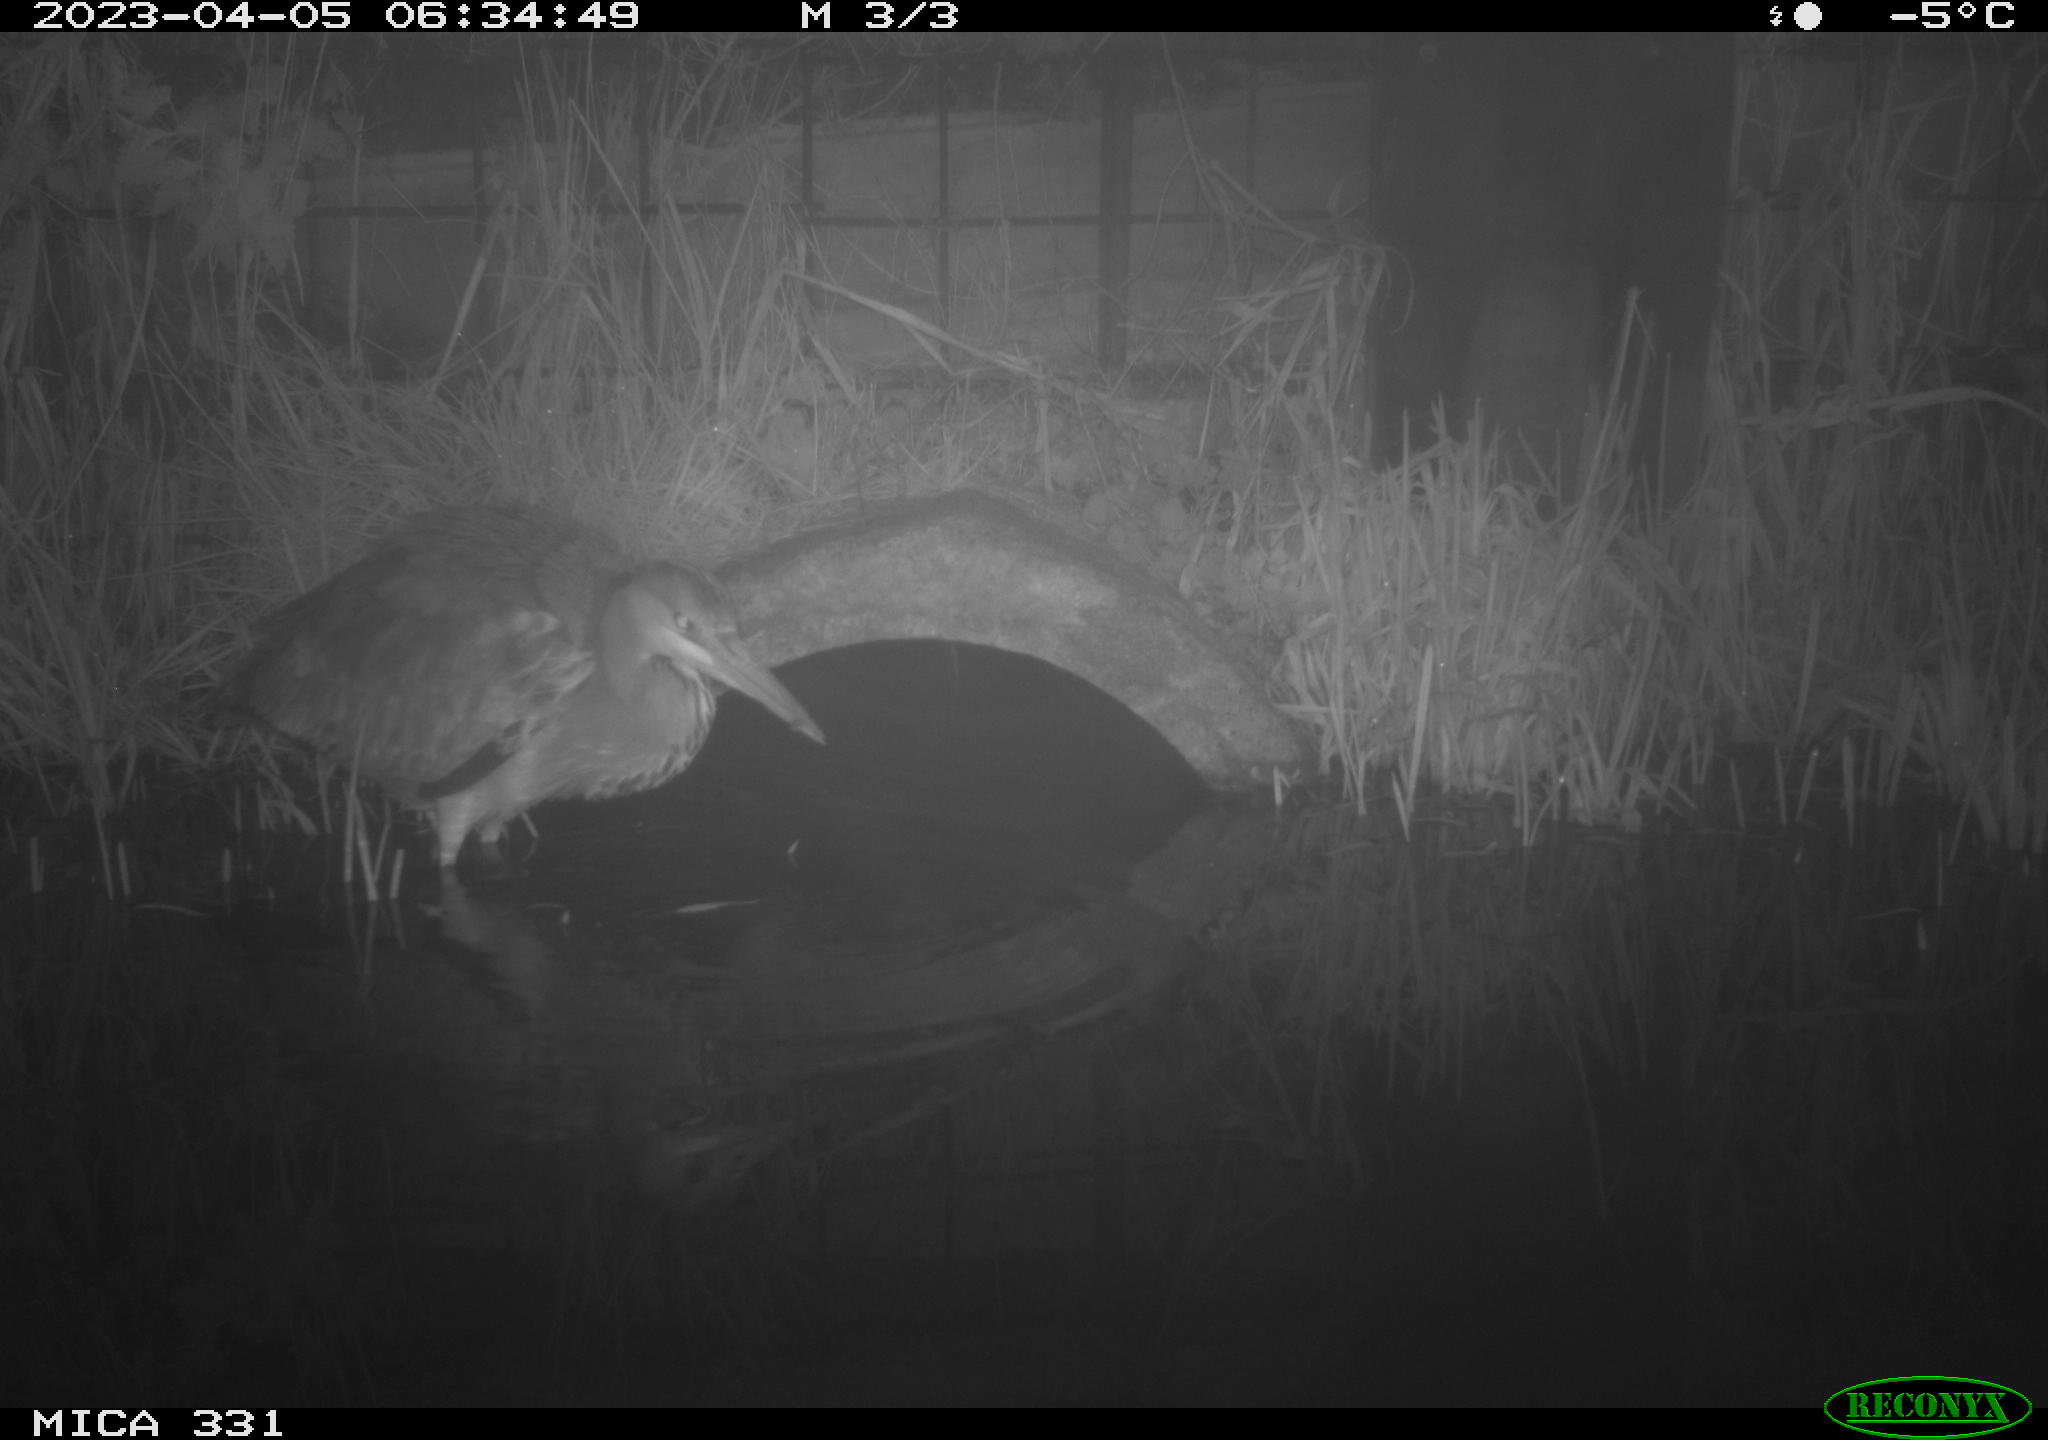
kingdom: Animalia
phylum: Chordata
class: Aves
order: Pelecaniformes
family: Ardeidae
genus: Ardea
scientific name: Ardea
